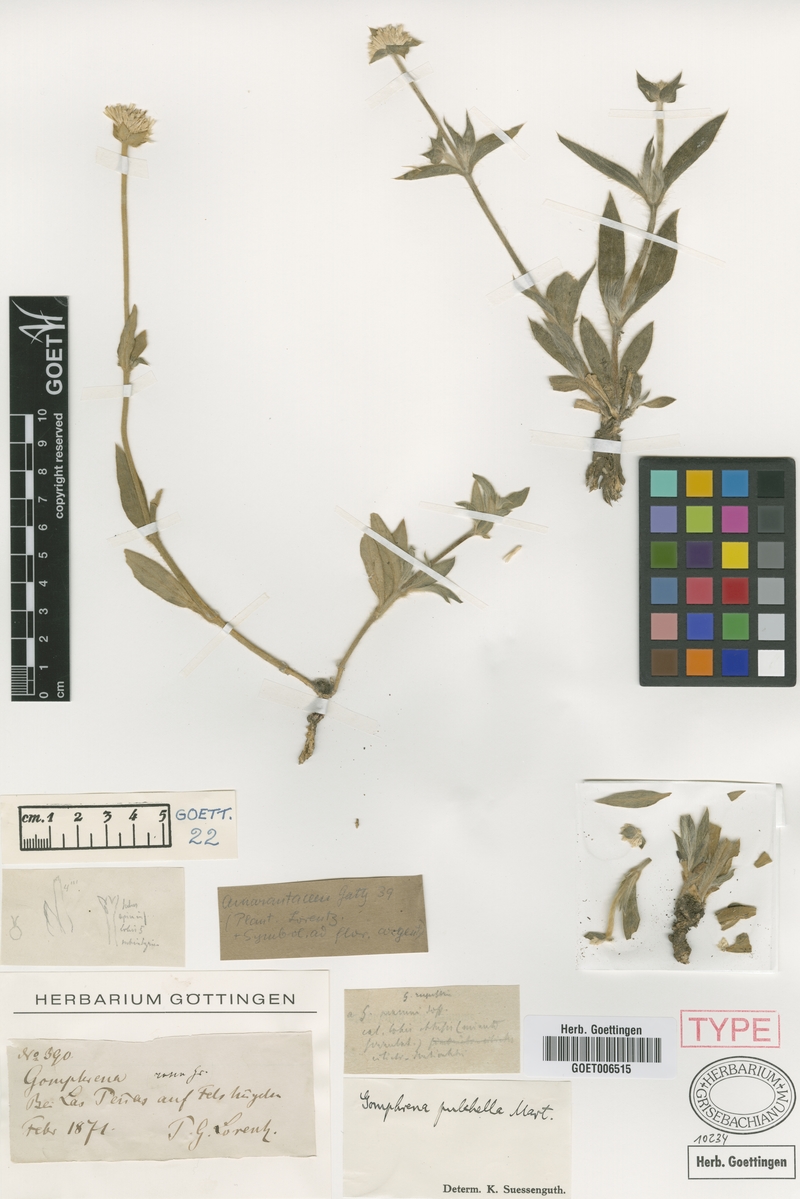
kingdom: Plantae
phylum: Tracheophyta
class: Magnoliopsida
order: Caryophyllales
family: Amaranthaceae
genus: Gomphrena
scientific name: Gomphrena pulchella
